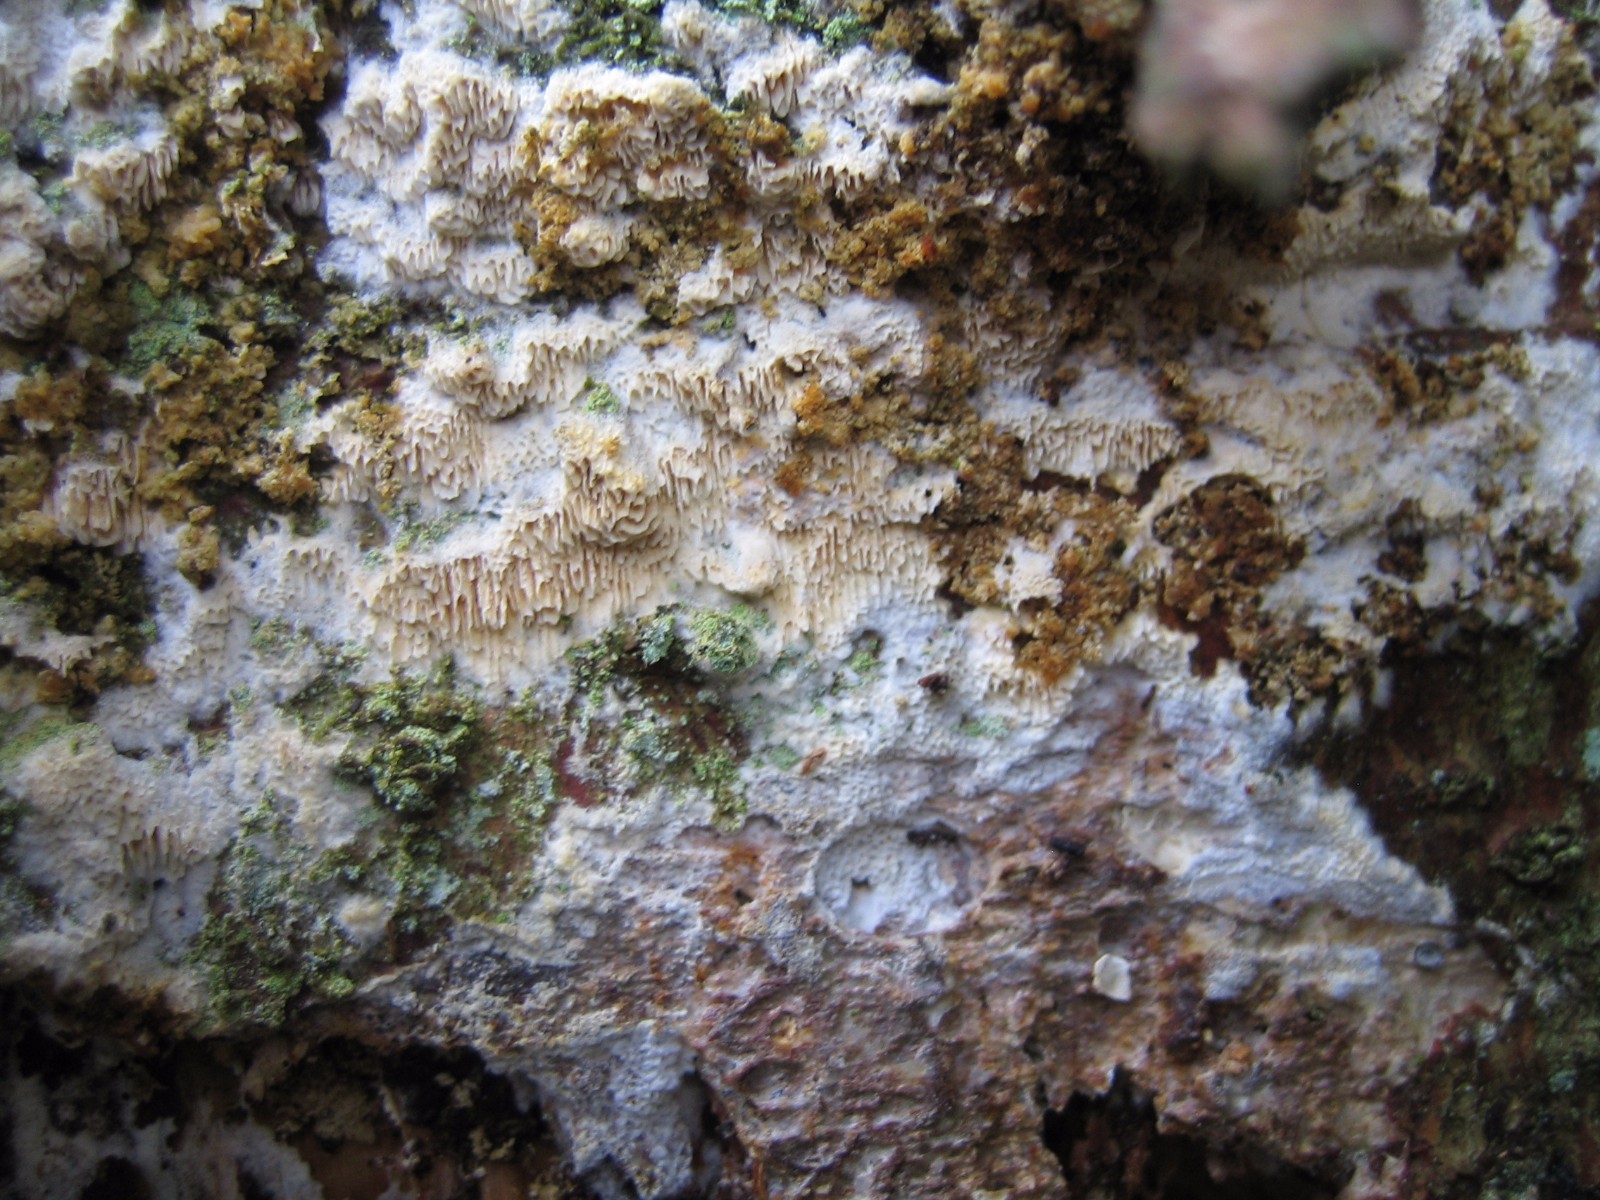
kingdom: Fungi
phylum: Basidiomycota
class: Agaricomycetes
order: Polyporales
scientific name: Polyporales
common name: poresvampordenen
